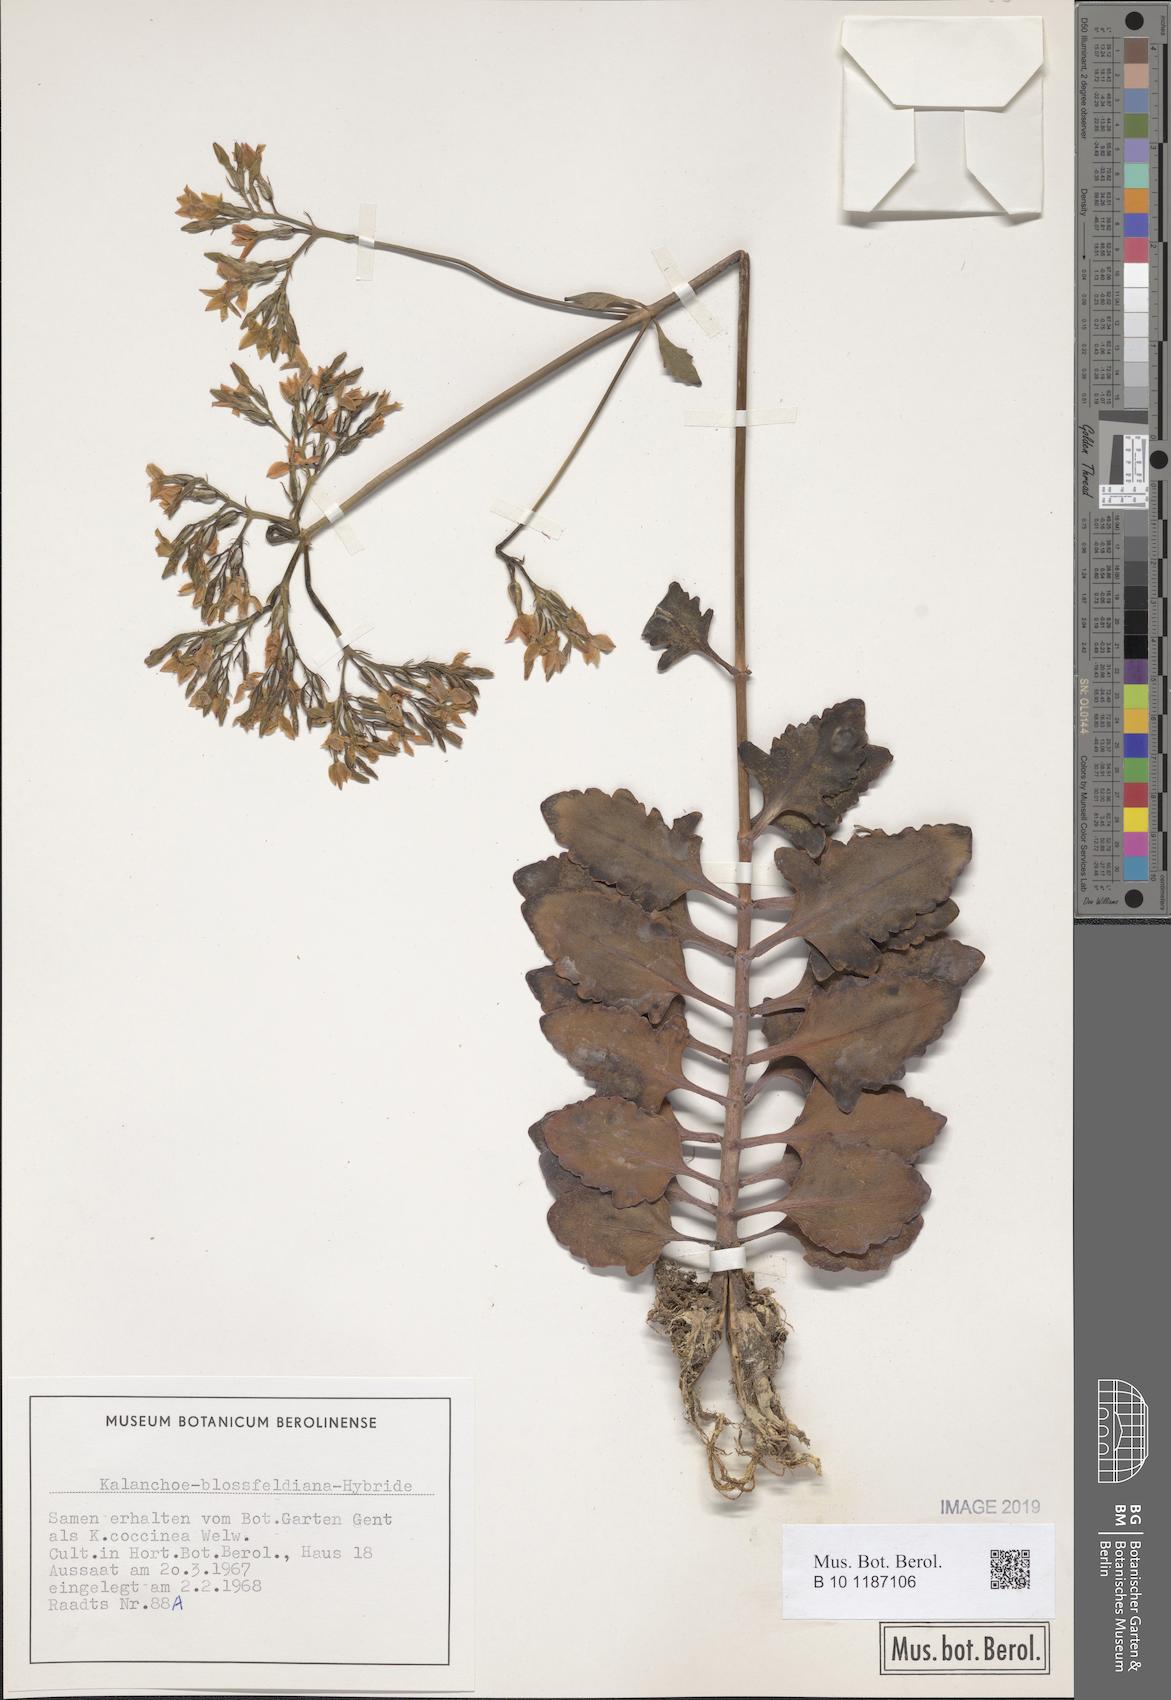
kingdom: Plantae
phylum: Tracheophyta
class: Magnoliopsida
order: Saxifragales
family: Crassulaceae
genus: Kalanchoe
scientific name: Kalanchoe
